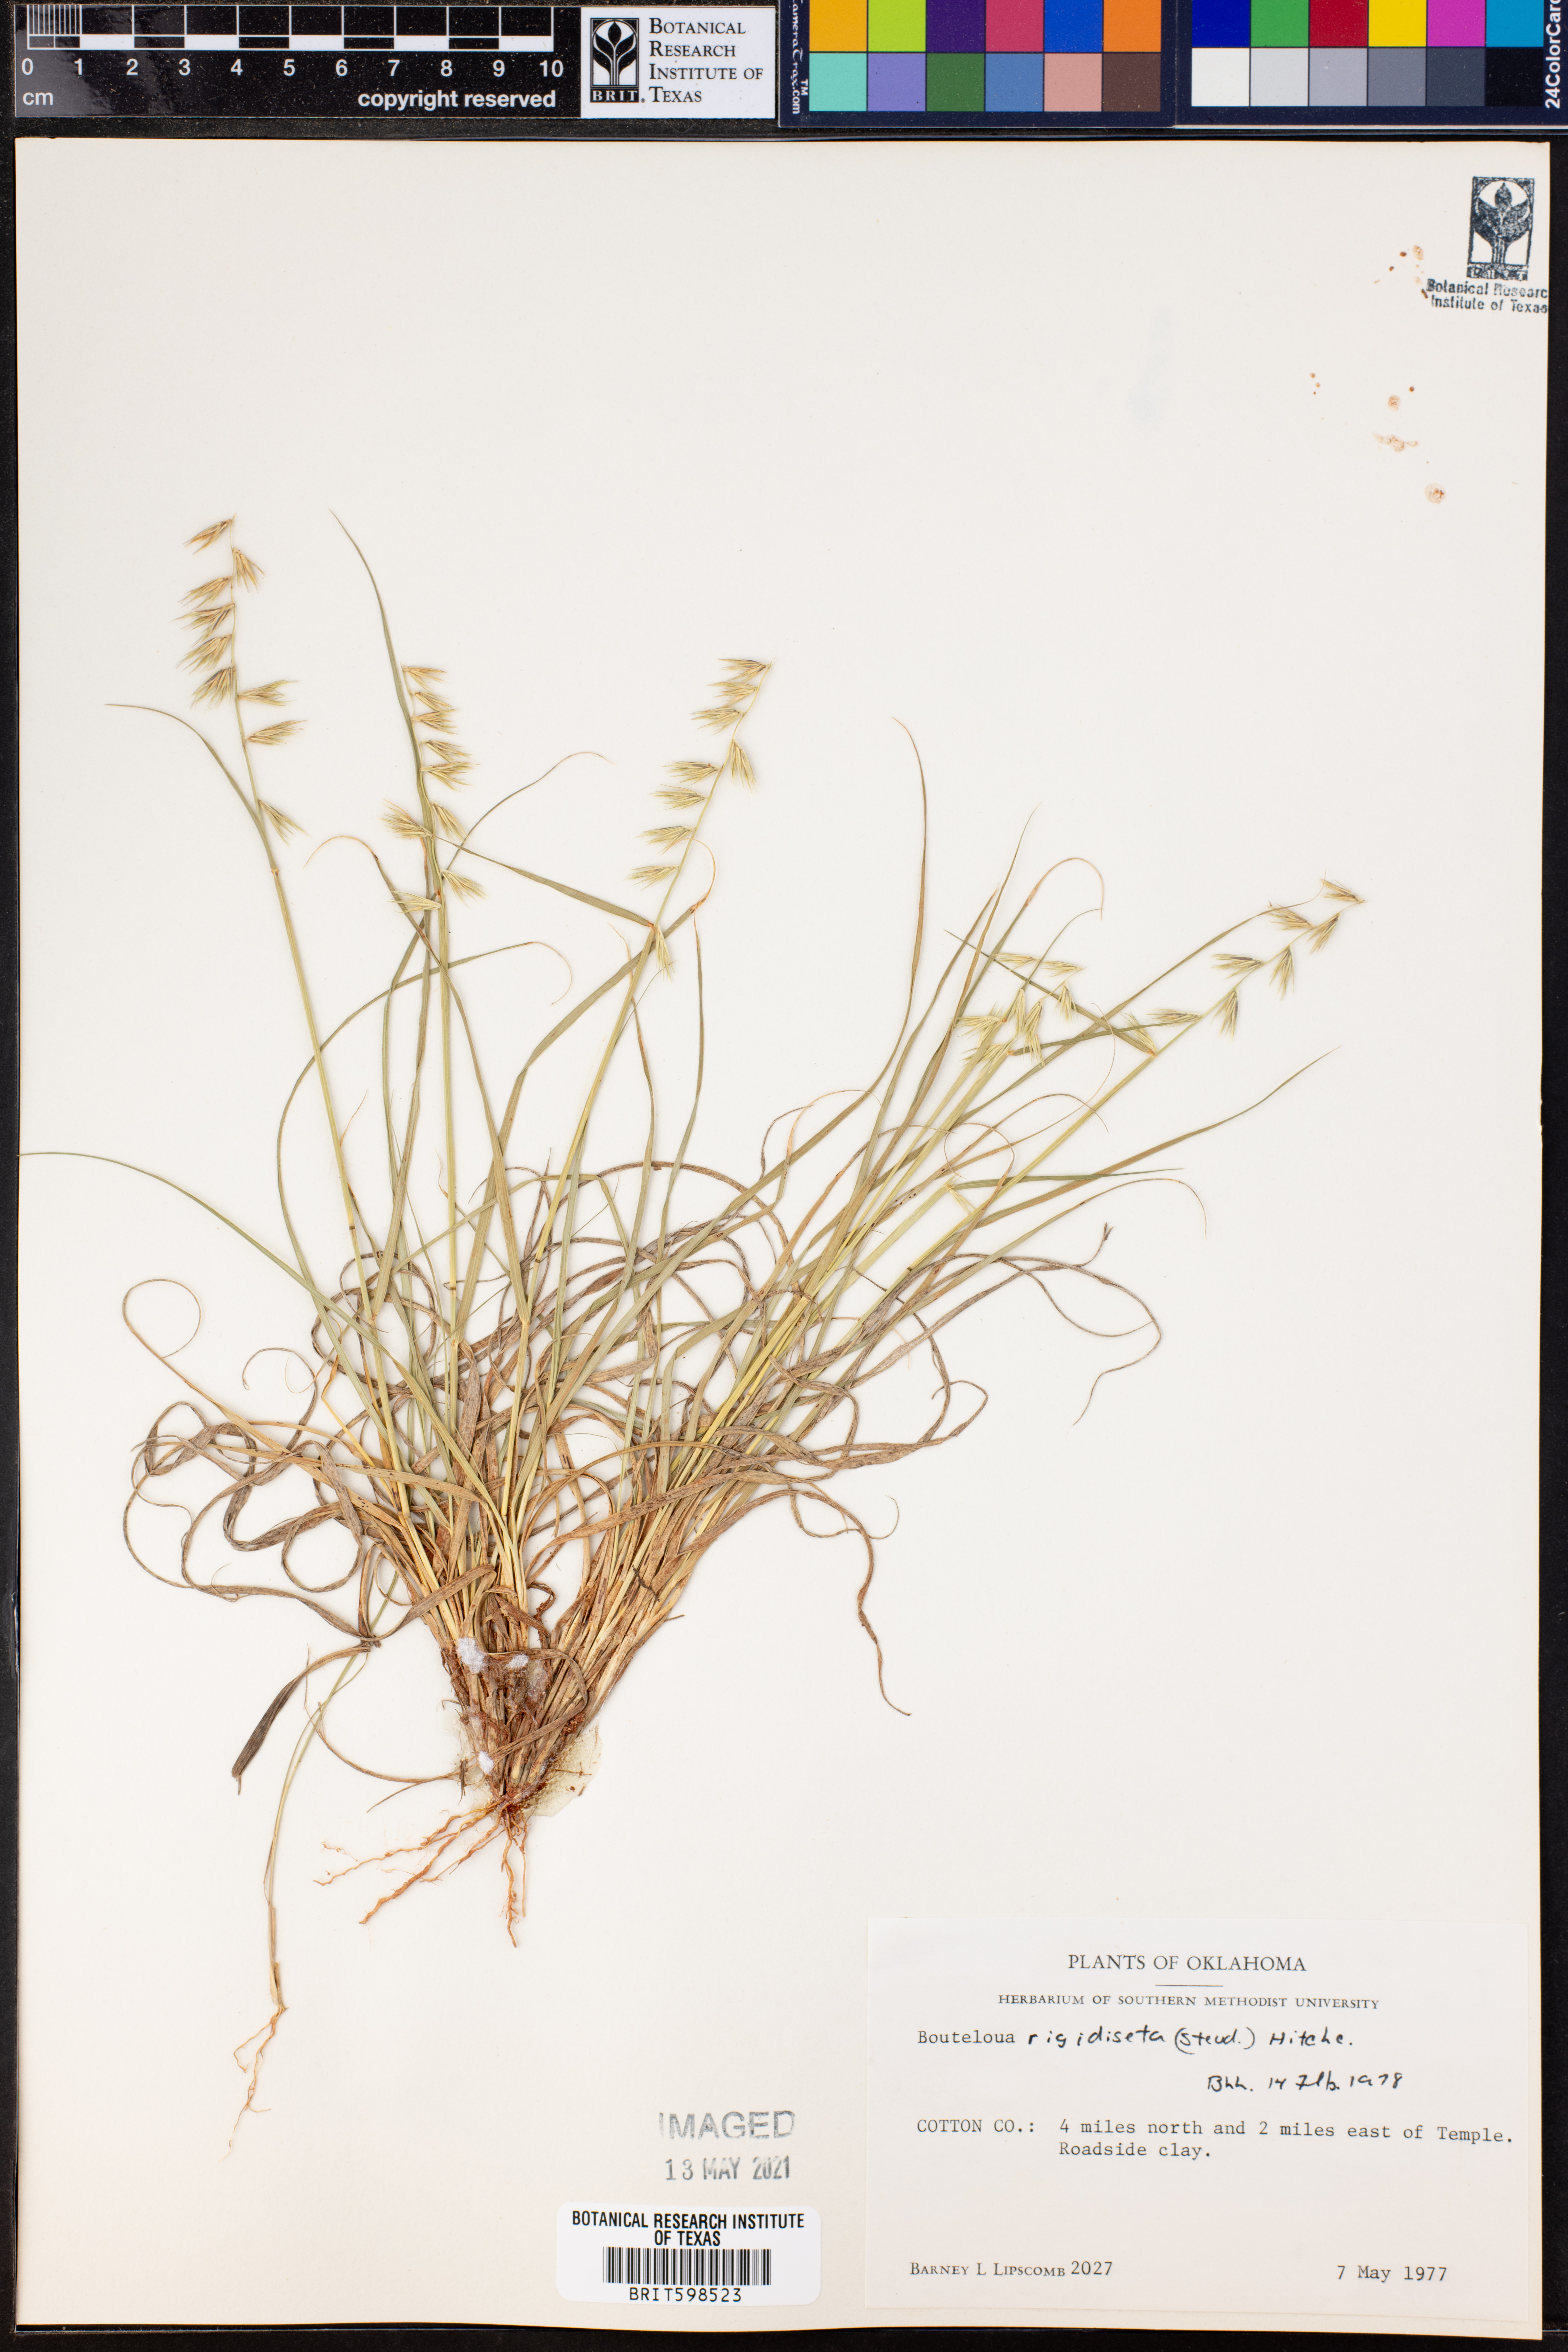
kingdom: Plantae
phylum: Tracheophyta
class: Liliopsida
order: Poales
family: Poaceae
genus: Bouteloua
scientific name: Bouteloua rigidiseta
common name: Texas grama
